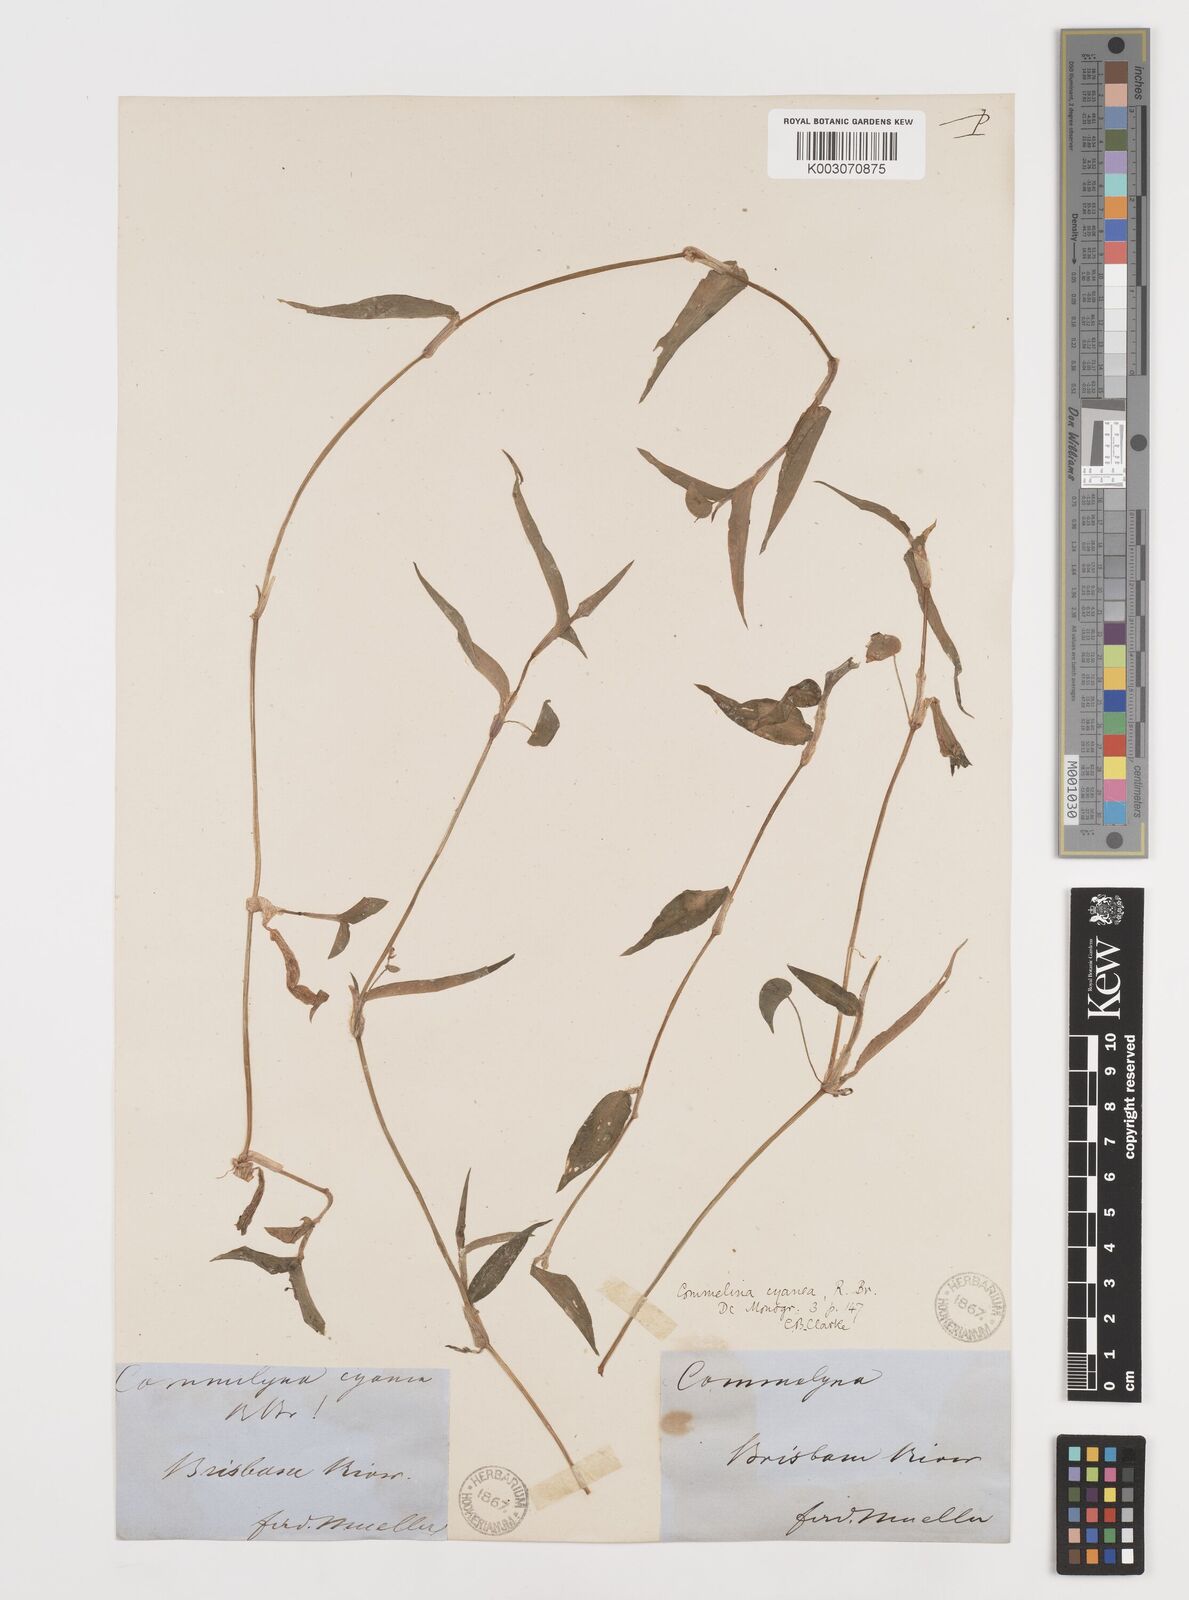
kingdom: Plantae
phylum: Tracheophyta
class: Liliopsida
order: Commelinales
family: Commelinaceae
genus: Commelina
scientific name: Commelina cyanea
